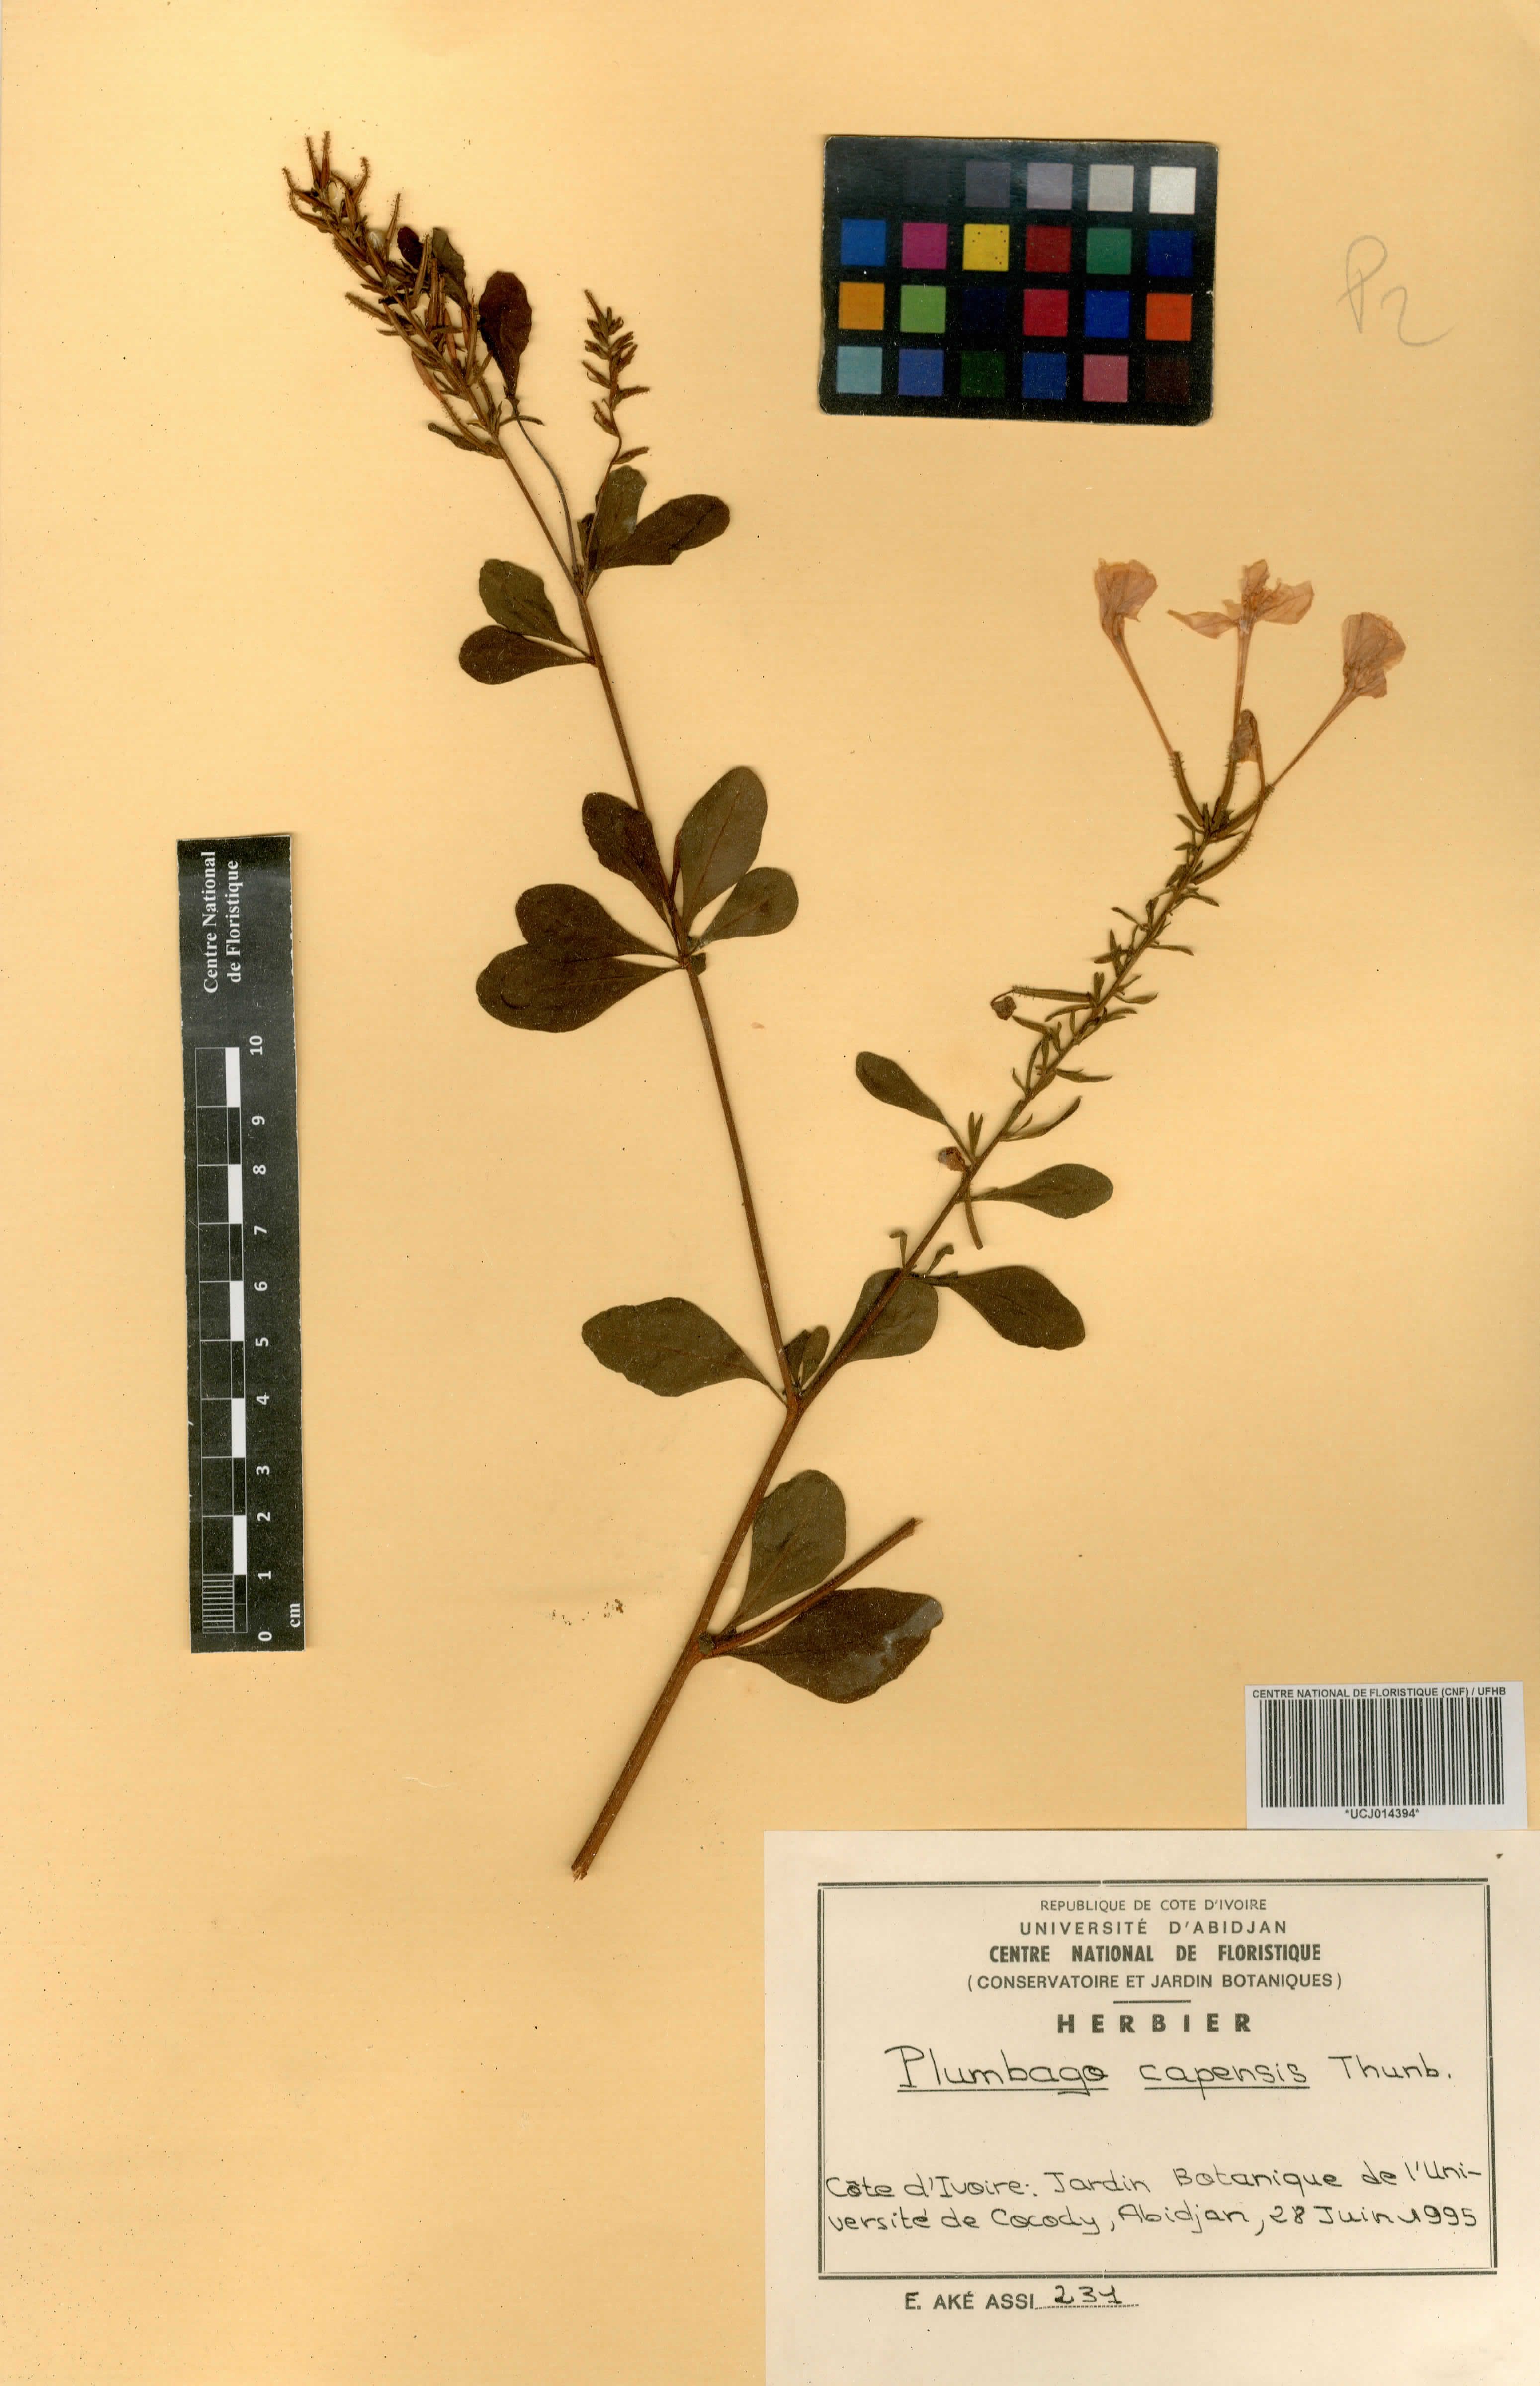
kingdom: Plantae
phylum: Tracheophyta
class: Magnoliopsida
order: Caryophyllales
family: Plumbaginaceae
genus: Plumbago
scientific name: Plumbago auriculata
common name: Cape leadwort
